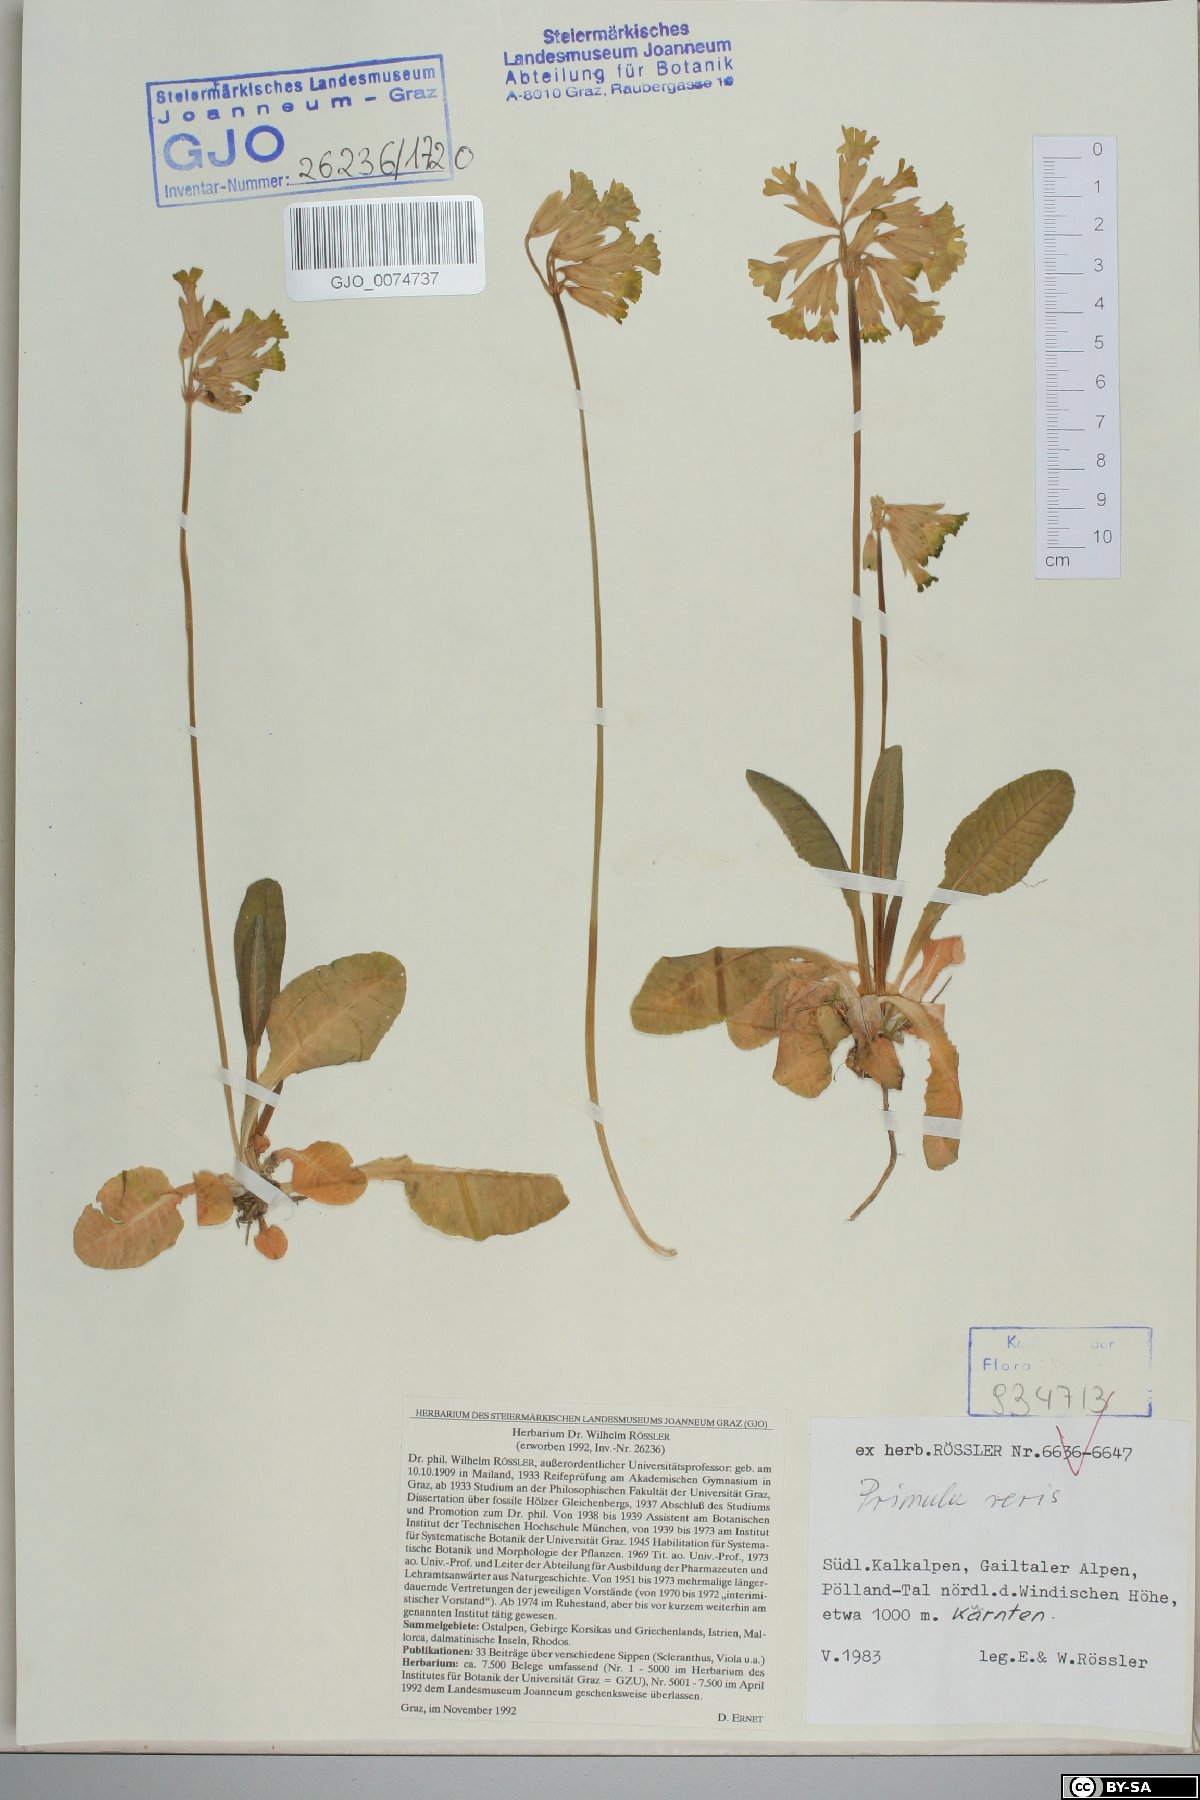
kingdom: Plantae
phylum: Tracheophyta
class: Magnoliopsida
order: Ericales
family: Primulaceae
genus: Primula
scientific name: Primula veris
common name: Cowslip
